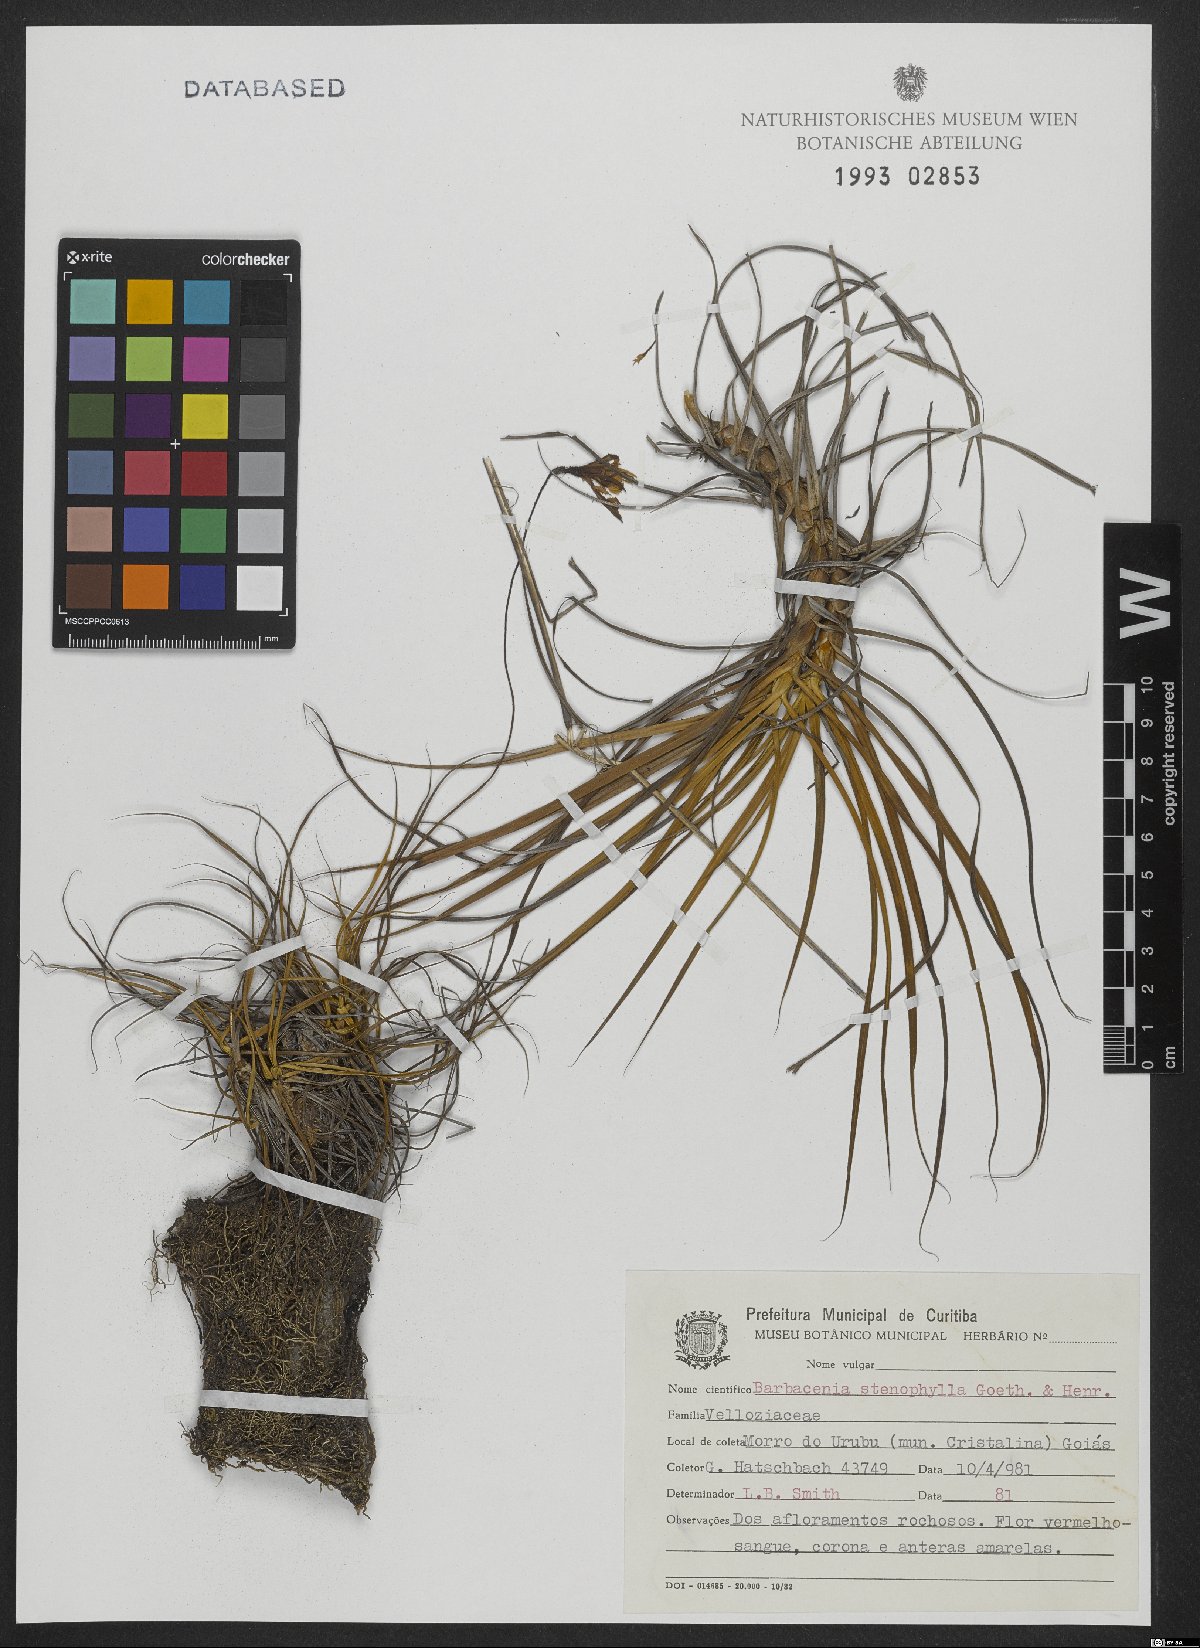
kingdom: Plantae
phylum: Tracheophyta
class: Liliopsida
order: Pandanales
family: Velloziaceae
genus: Barbacenia
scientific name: Barbacenia stenophylla
